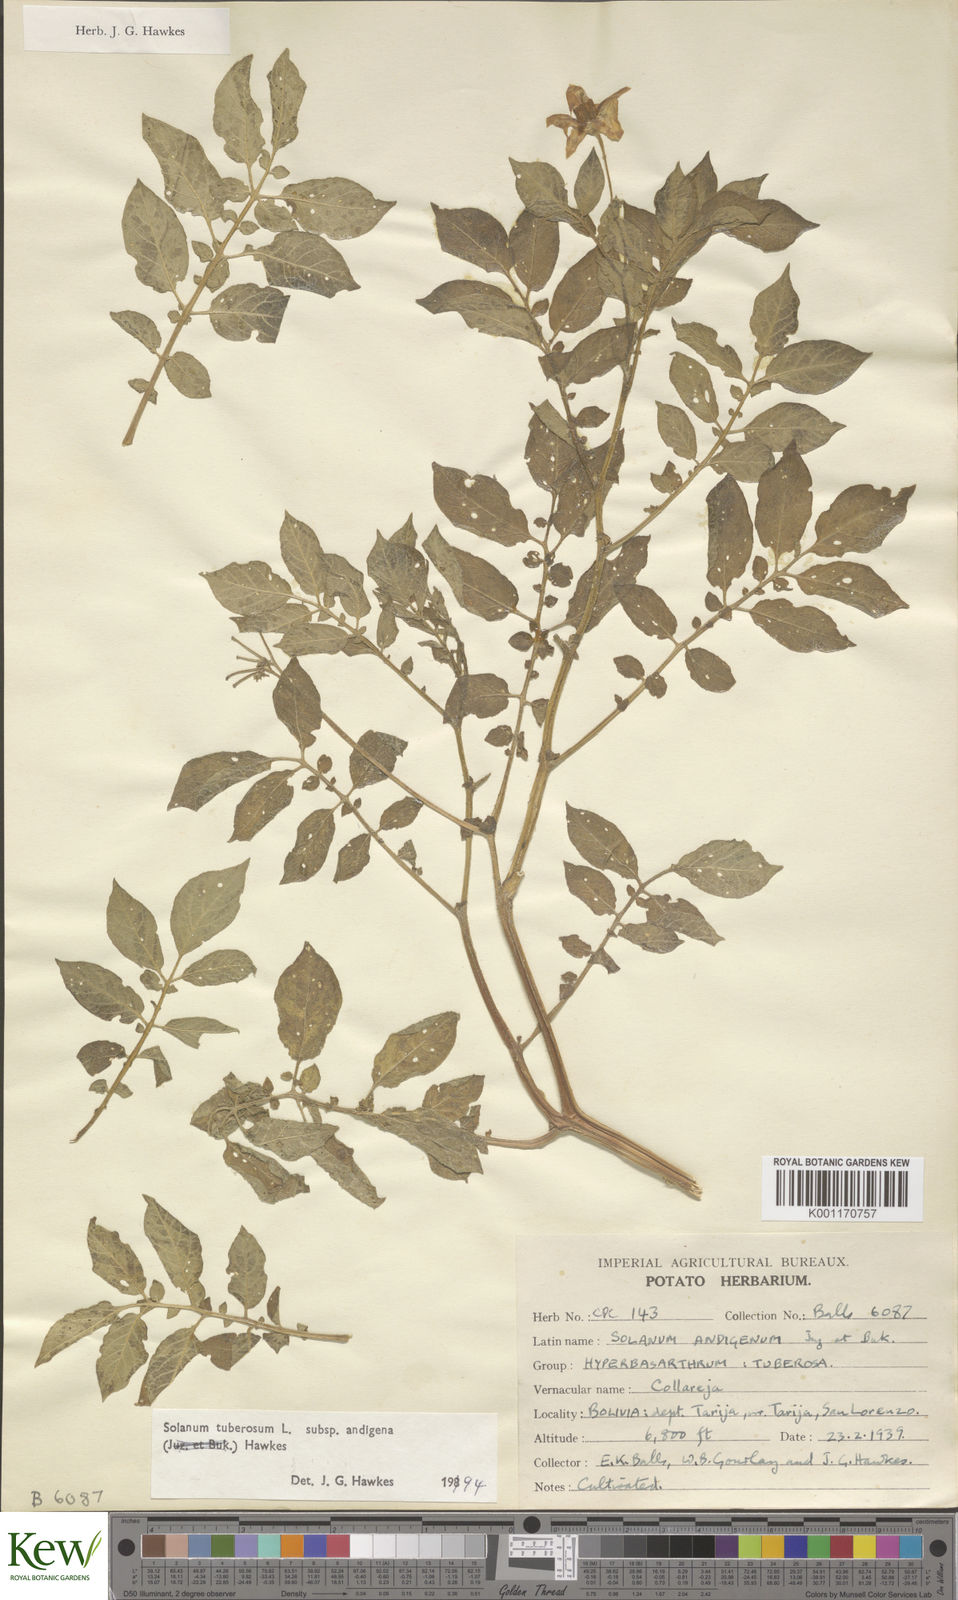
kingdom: Plantae
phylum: Tracheophyta
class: Magnoliopsida
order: Solanales
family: Solanaceae
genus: Solanum
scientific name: Solanum tuberosum
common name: Potato
